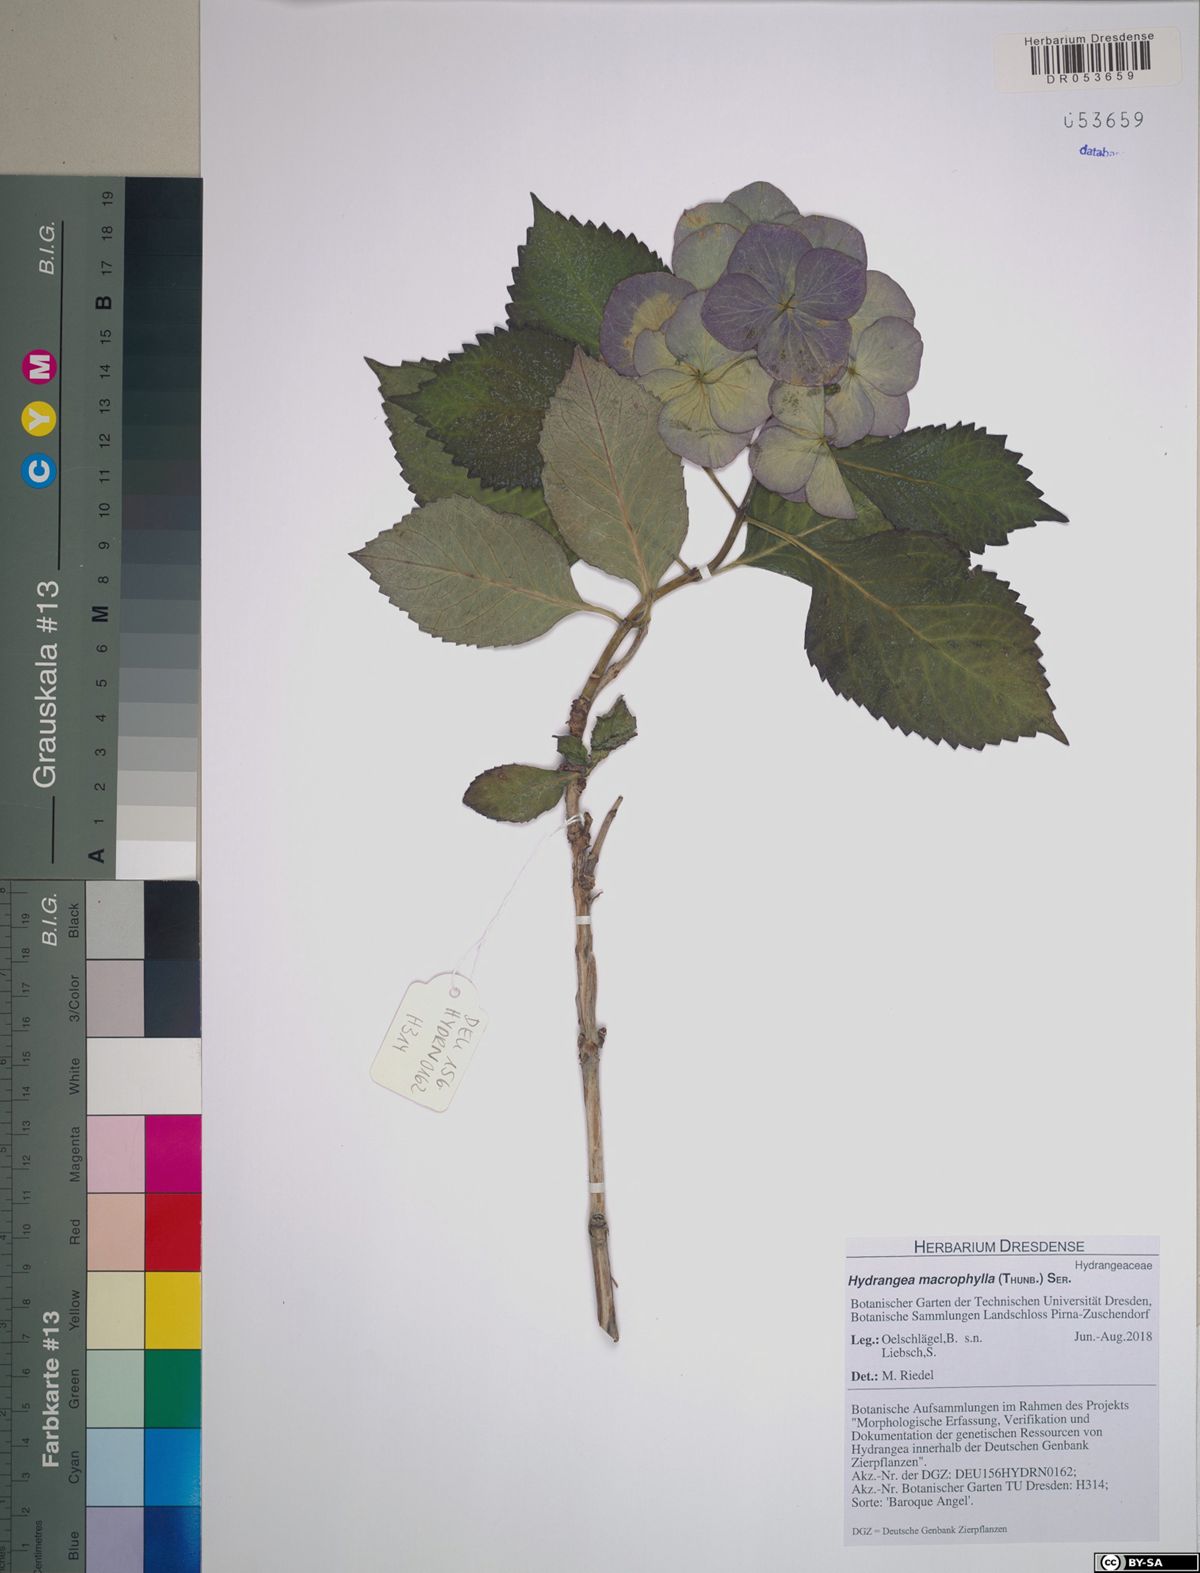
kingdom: Plantae
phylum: Tracheophyta
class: Magnoliopsida
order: Cornales
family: Hydrangeaceae
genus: Hydrangea
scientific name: Hydrangea macrophylla
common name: Hydrangea
